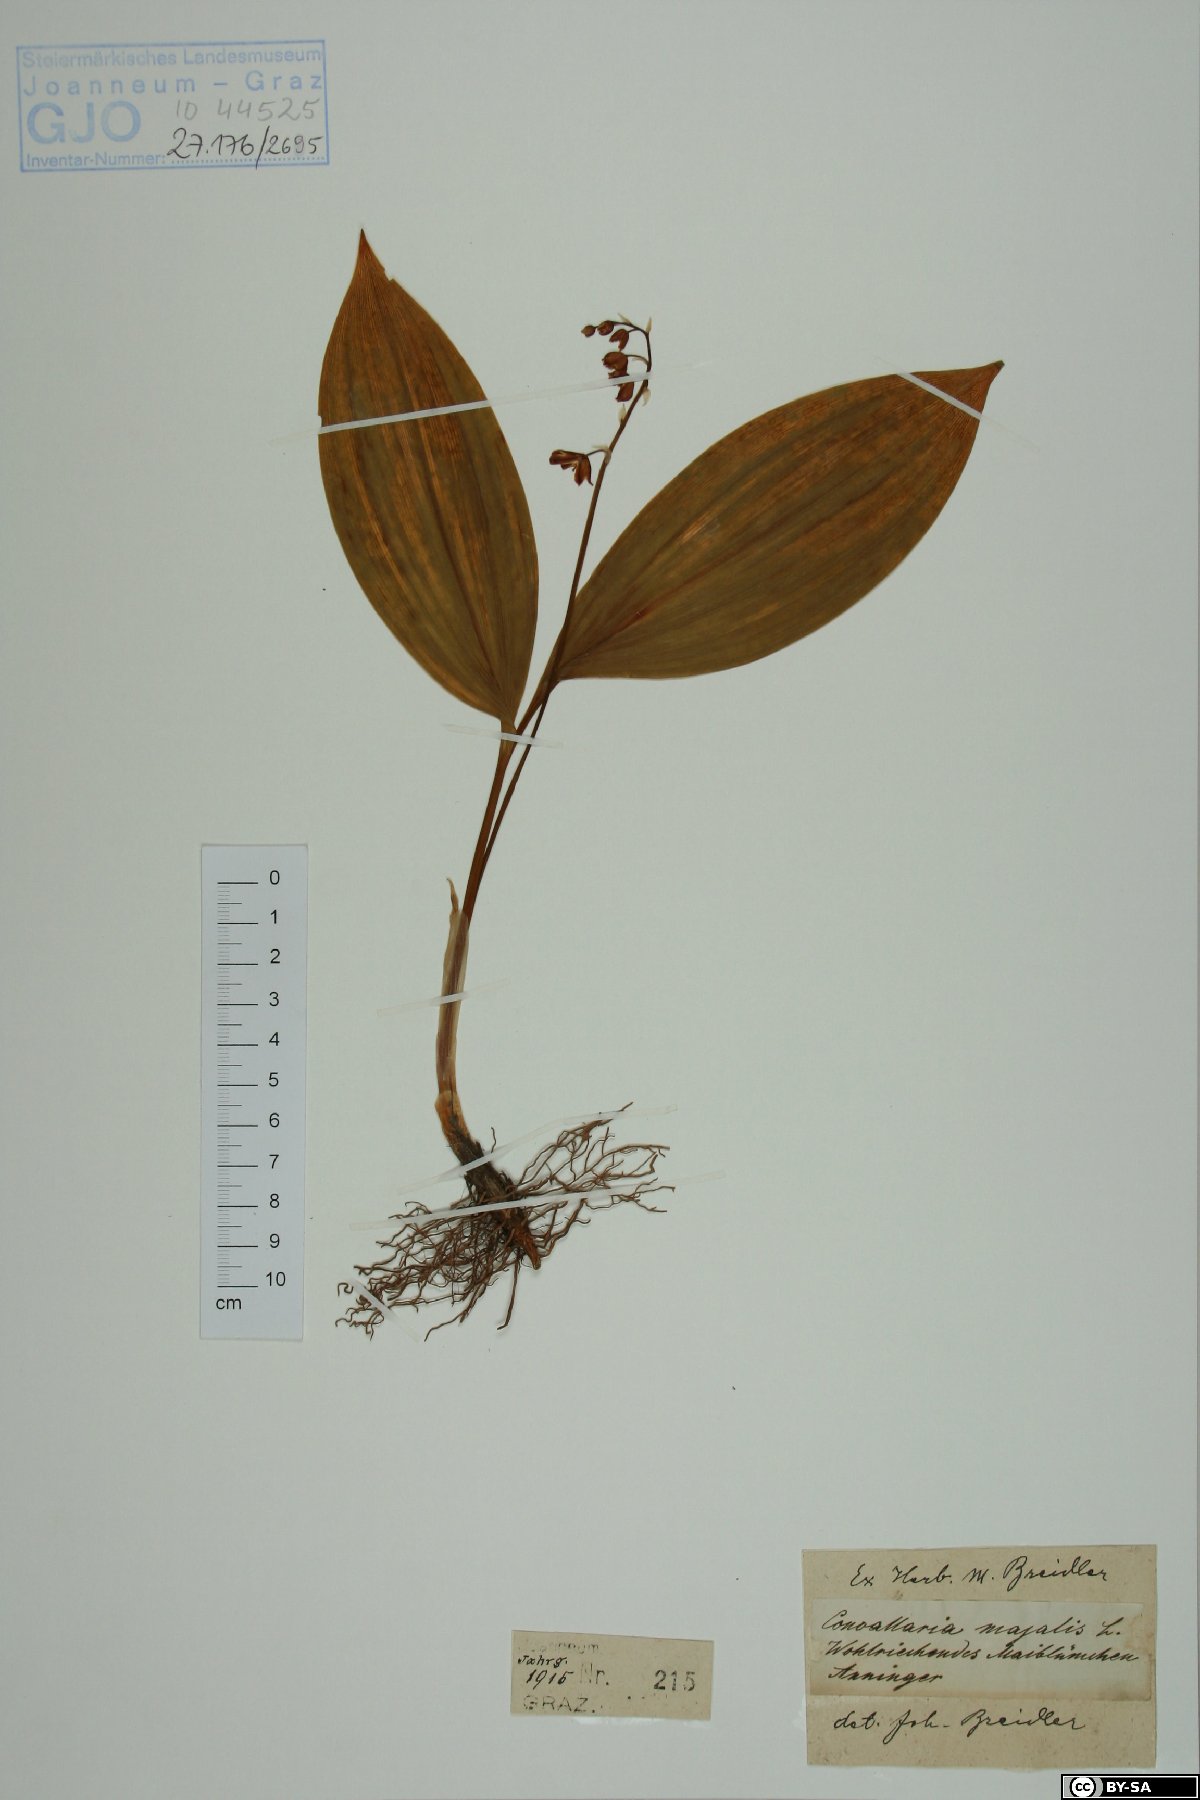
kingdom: Plantae
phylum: Tracheophyta
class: Liliopsida
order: Asparagales
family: Asparagaceae
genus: Convallaria
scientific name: Convallaria majalis
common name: Lily-of-the-valley
